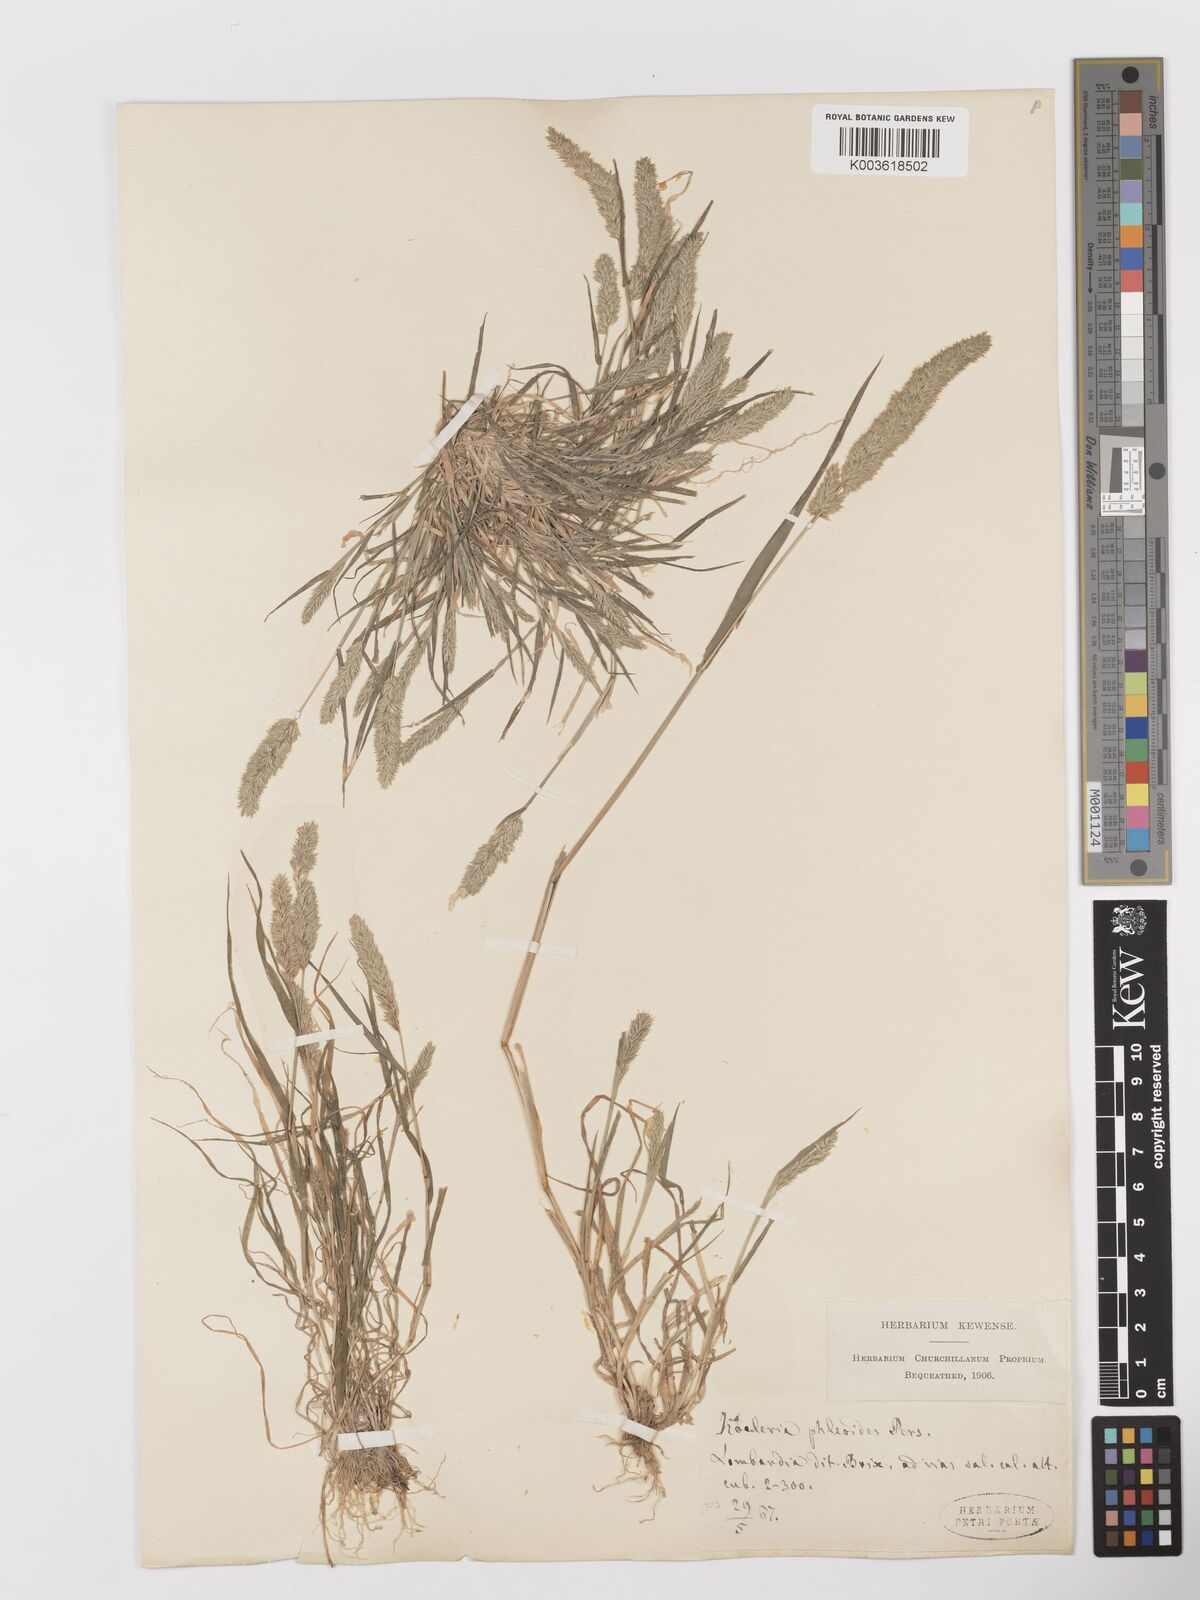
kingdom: Plantae
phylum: Tracheophyta
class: Liliopsida
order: Poales
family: Poaceae
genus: Rostraria
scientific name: Rostraria cristata
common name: Mediterranean hair-grass
